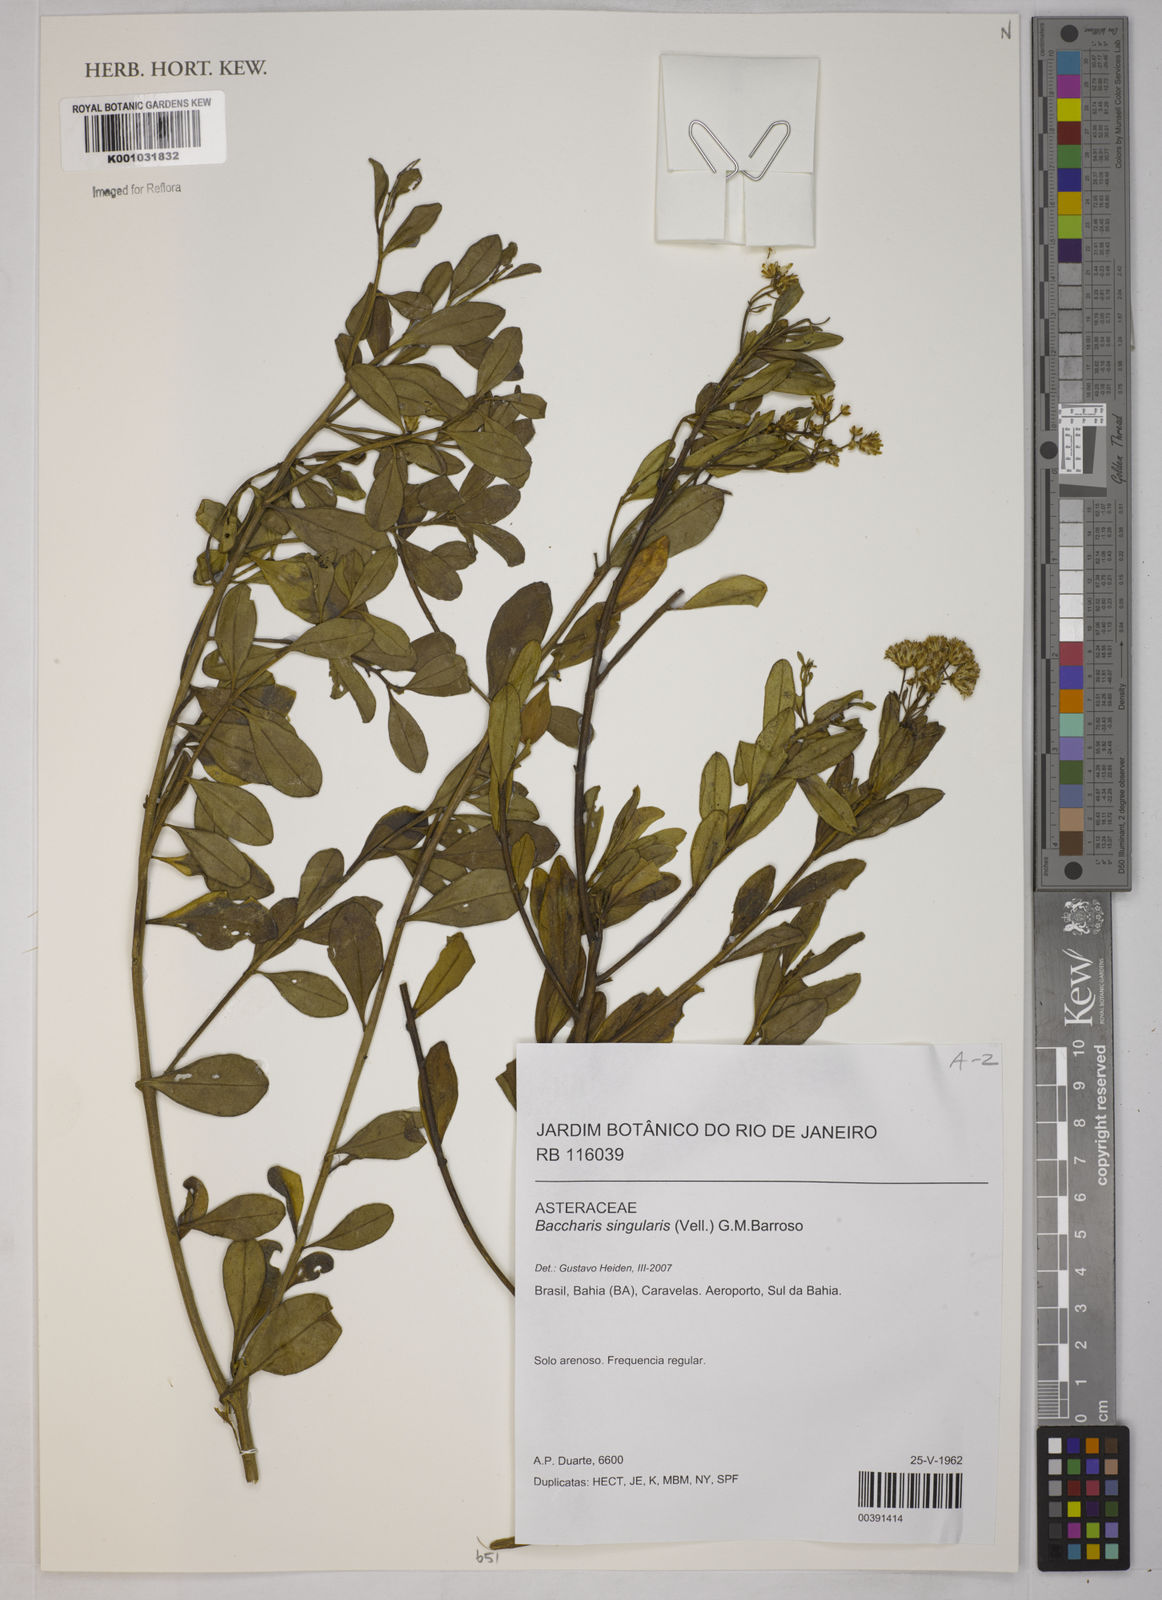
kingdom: Plantae
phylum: Tracheophyta
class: Magnoliopsida
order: Asterales
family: Asteraceae
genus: Baccharis
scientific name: Baccharis singularis
